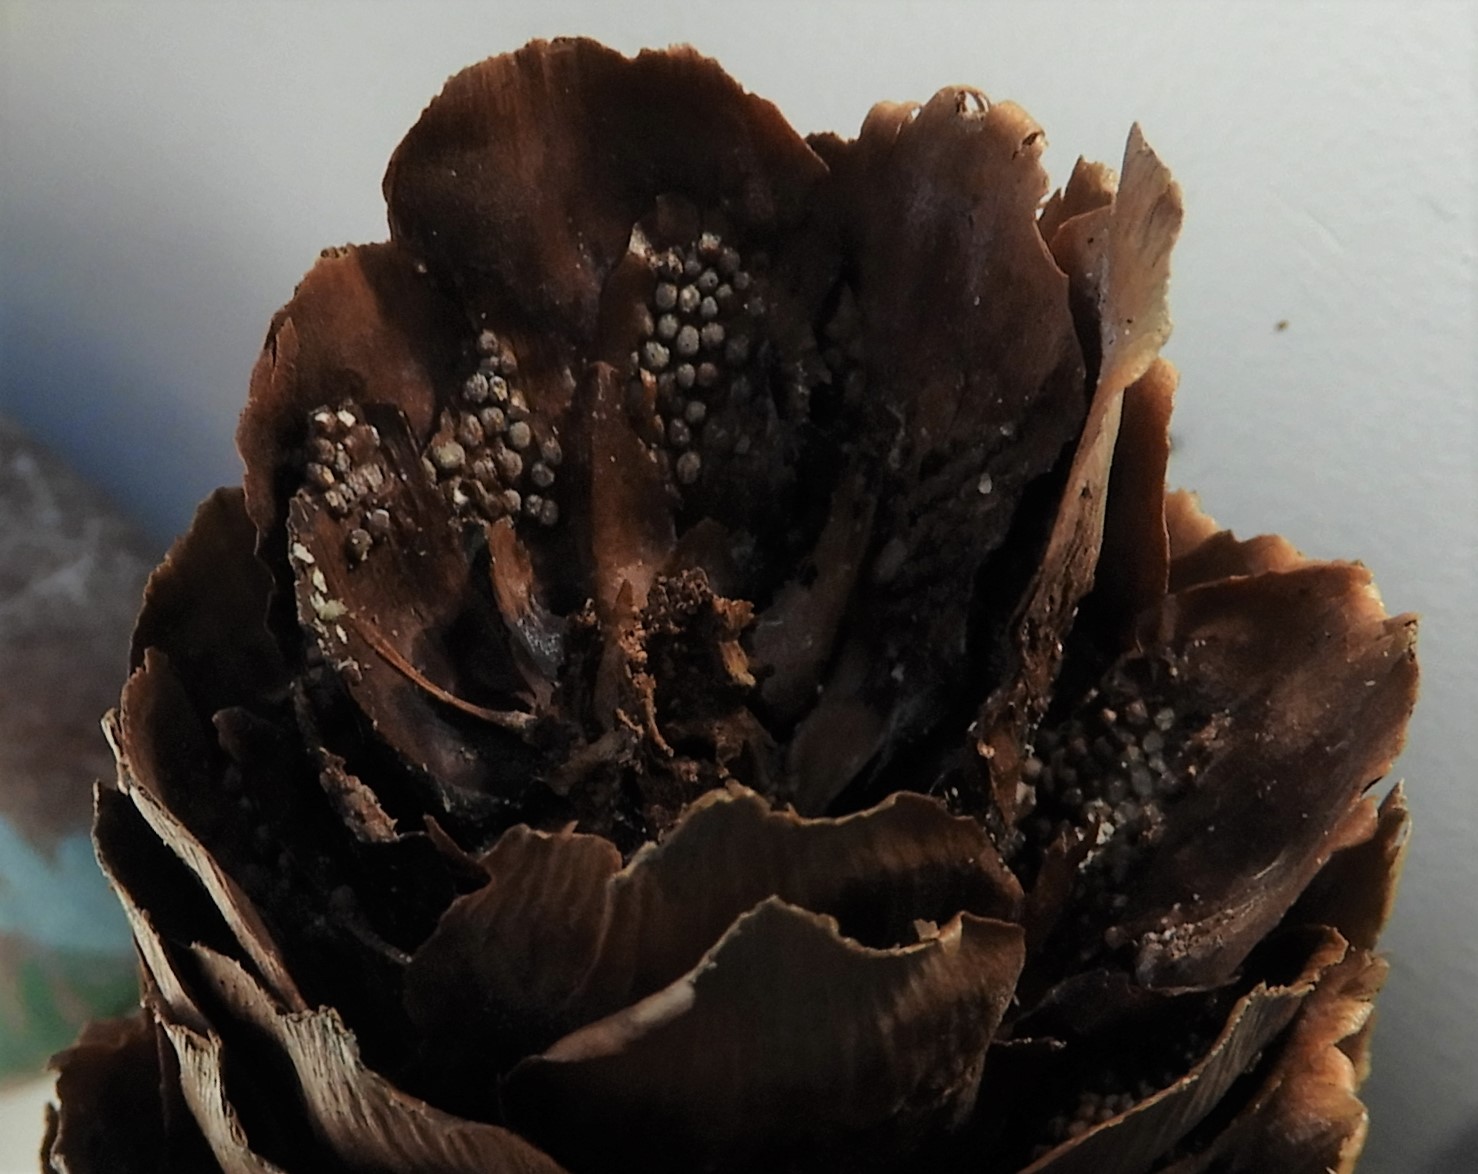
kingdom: Fungi
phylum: Basidiomycota
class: Pucciniomycetes
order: Pucciniales
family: Pucciniastraceae
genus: Thekopsora
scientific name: Thekopsora areolata
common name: grankogle-nålerust
